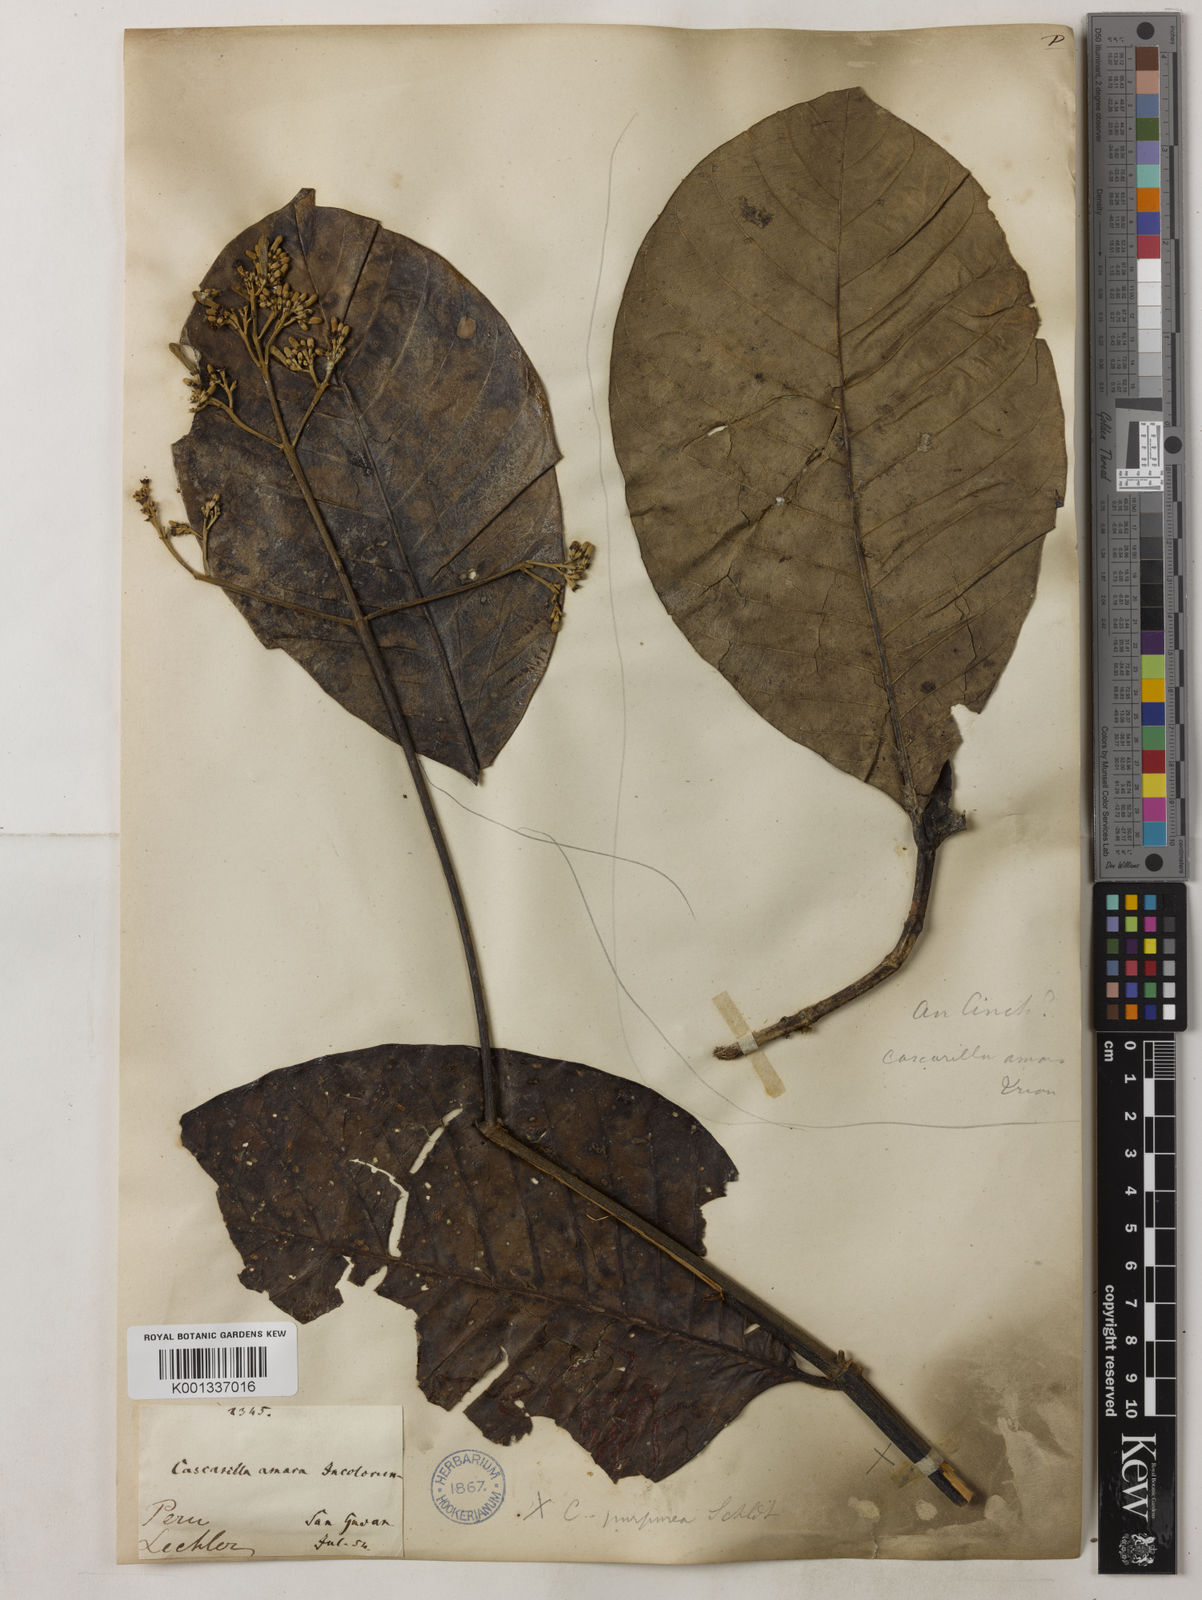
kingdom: Plantae
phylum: Tracheophyta
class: Magnoliopsida
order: Gentianales
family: Rubiaceae
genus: Cinchona
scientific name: Cinchona pubescens
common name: Quinine
